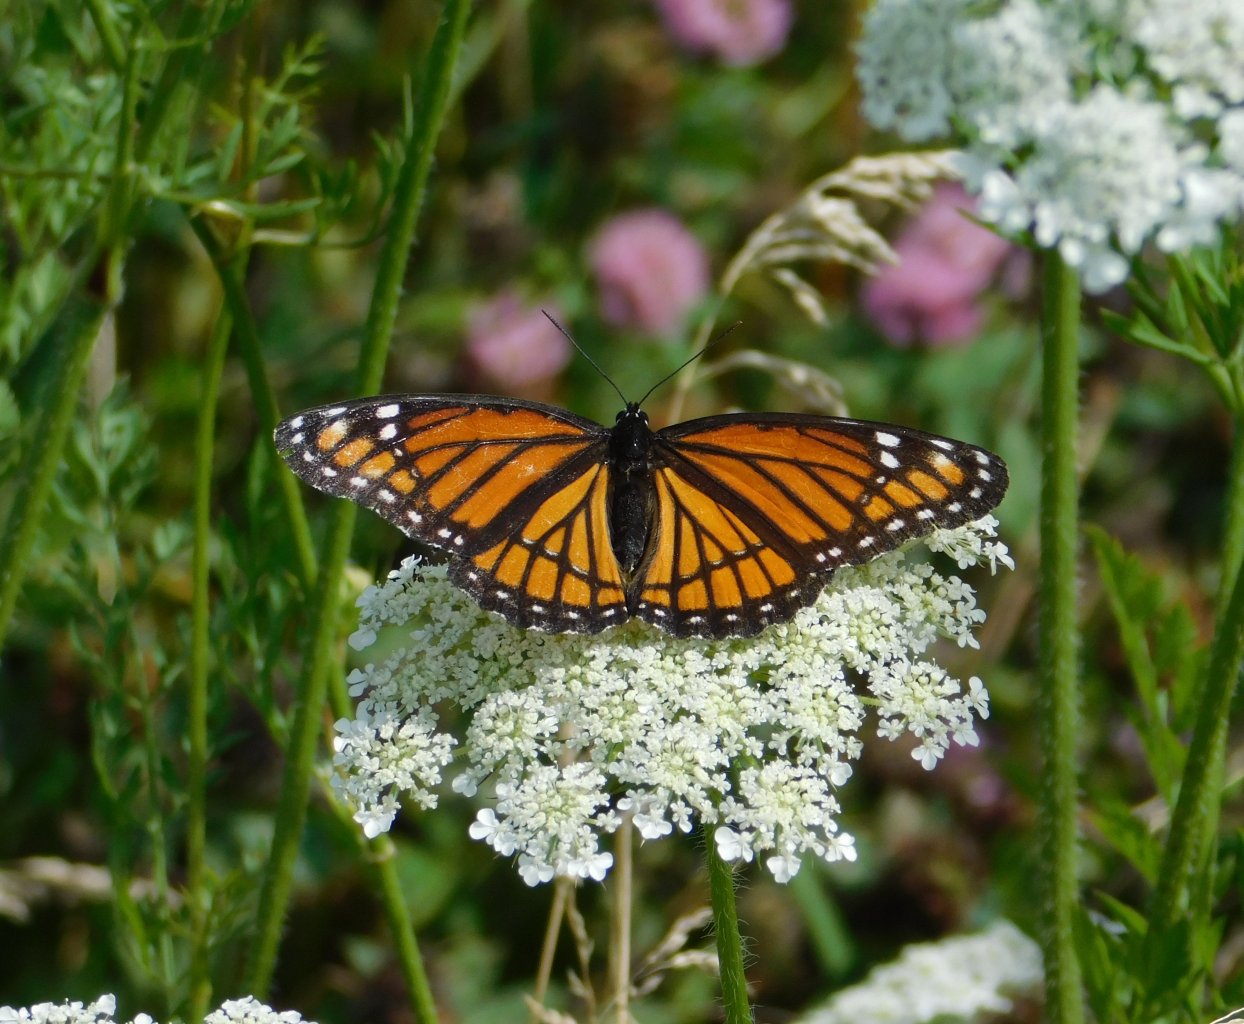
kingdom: Animalia
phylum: Arthropoda
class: Insecta
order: Lepidoptera
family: Nymphalidae
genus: Limenitis
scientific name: Limenitis archippus
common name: Viceroy
